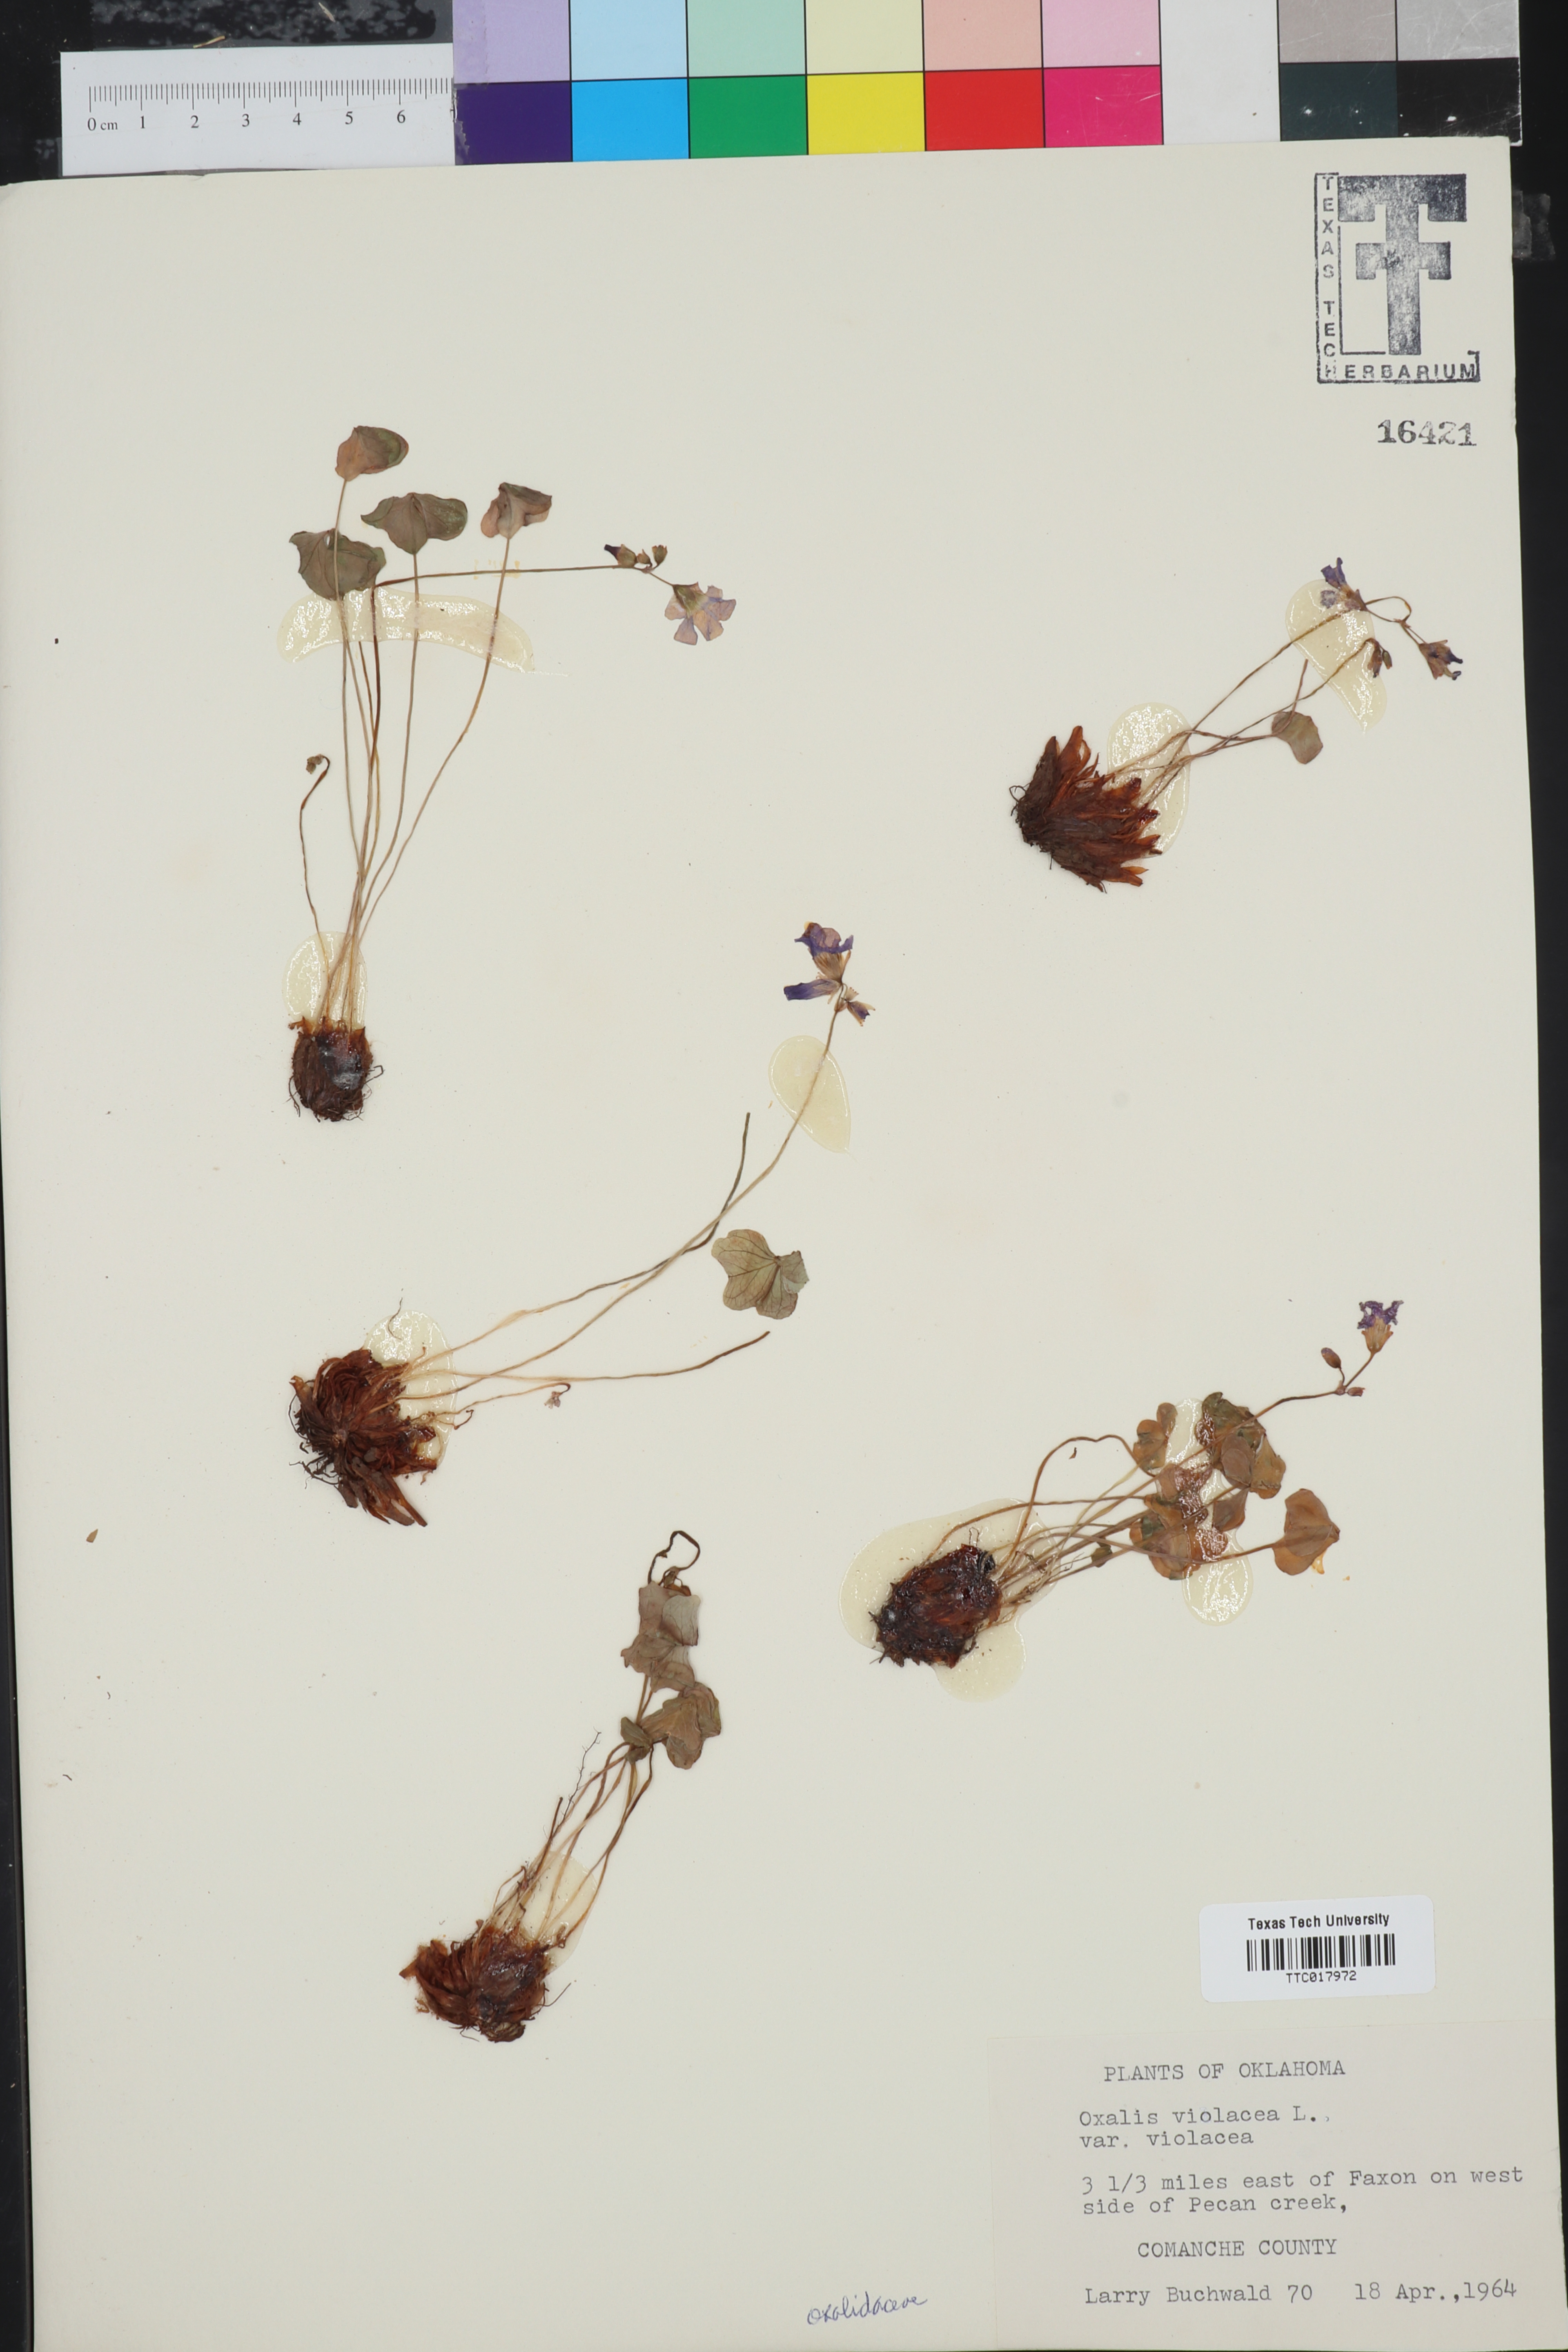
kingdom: Plantae
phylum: Tracheophyta
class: Magnoliopsida
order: Oxalidales
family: Oxalidaceae
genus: Oxalis
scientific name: Oxalis violacea
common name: Violet wood-sorrel
